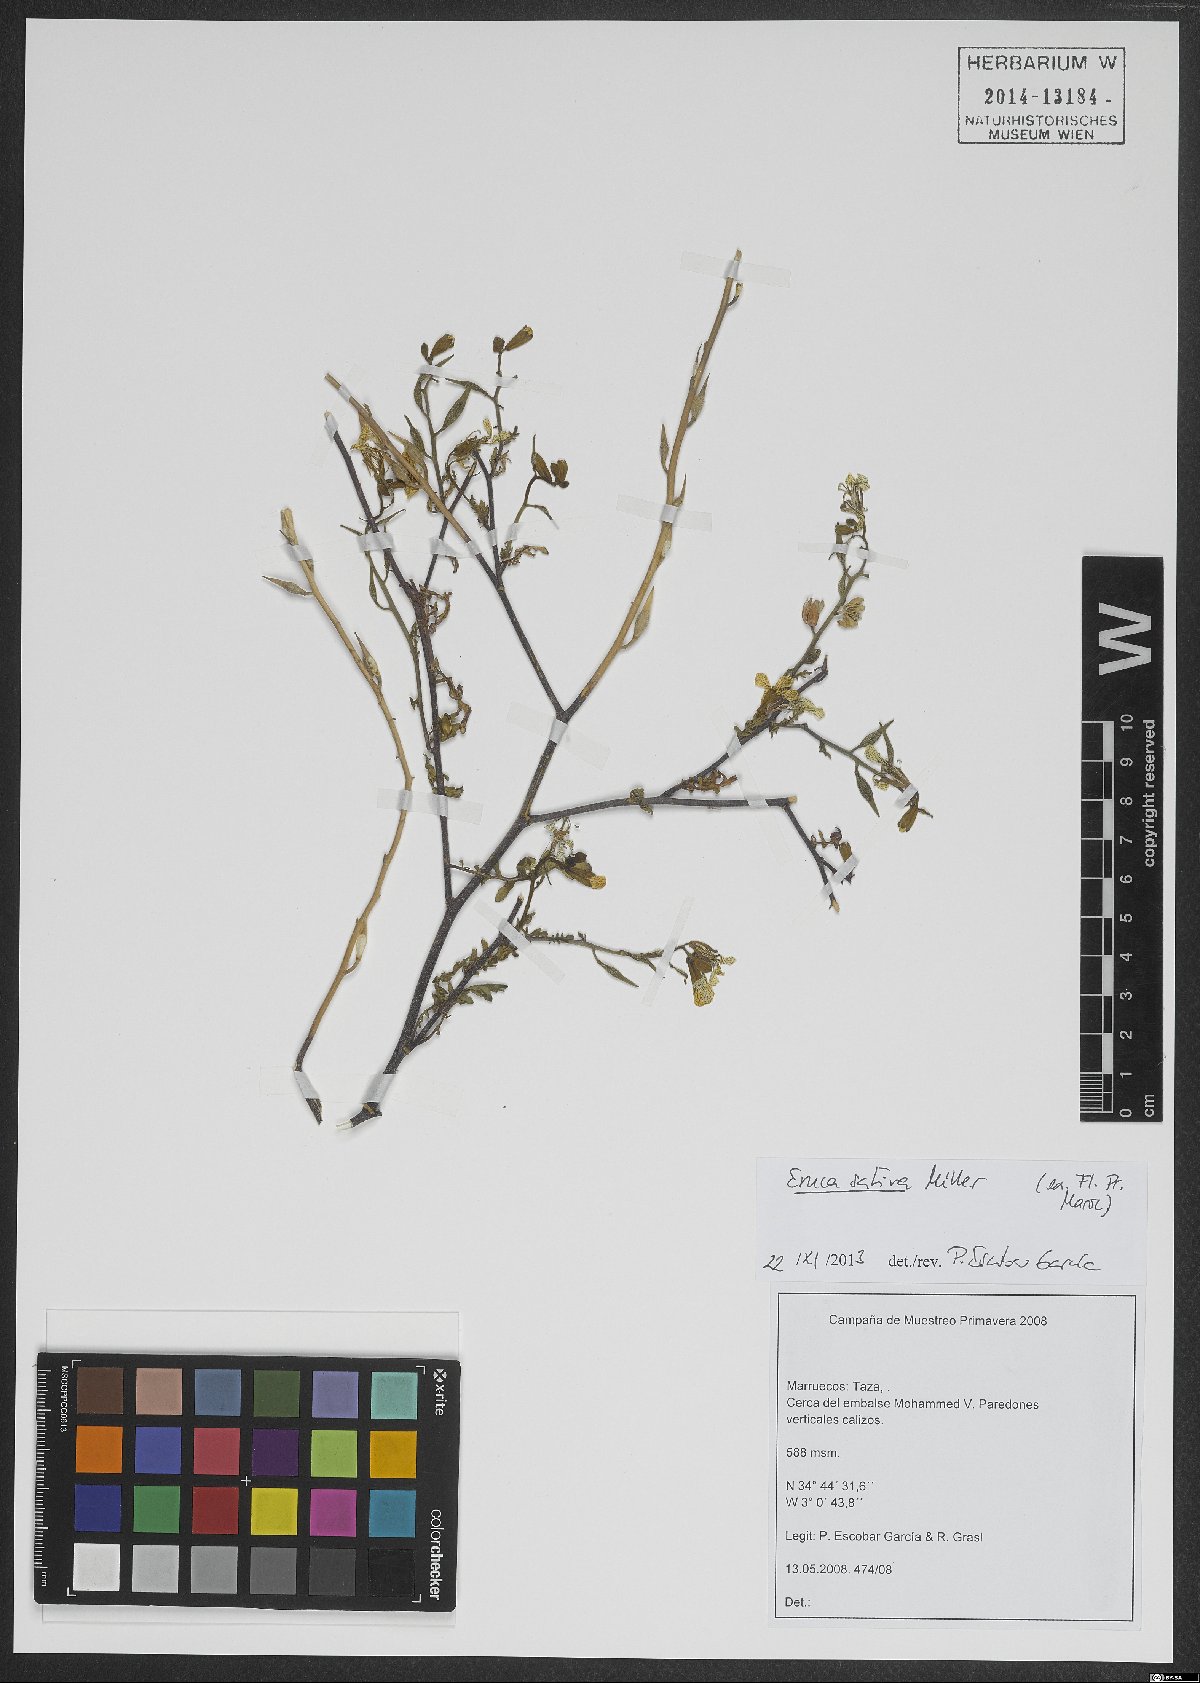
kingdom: Plantae
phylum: Tracheophyta
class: Magnoliopsida
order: Brassicales
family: Brassicaceae
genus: Eruca
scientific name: Eruca vesicaria
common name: Garden rocket
